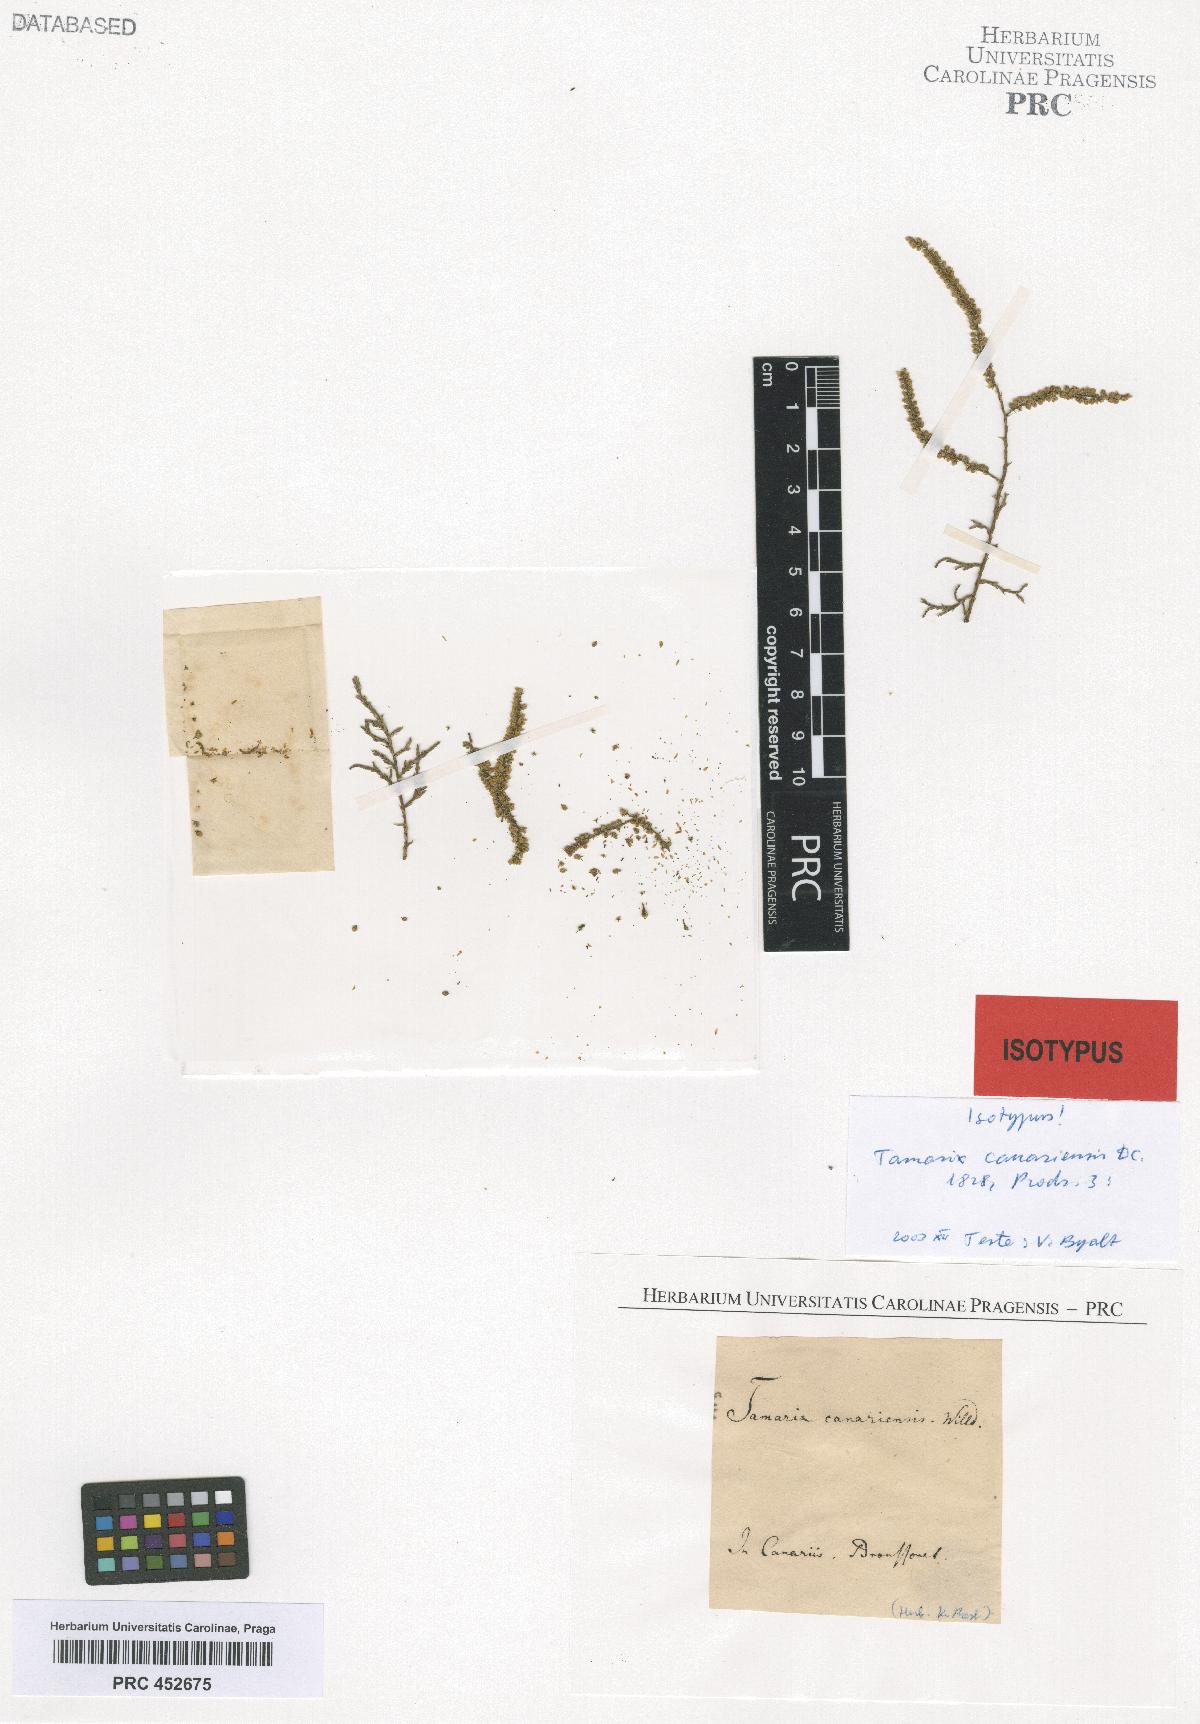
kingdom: Plantae
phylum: Tracheophyta
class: Magnoliopsida
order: Caryophyllales
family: Tamaricaceae
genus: Tamarix
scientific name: Tamarix canariensis
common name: Canary island tamarisk
